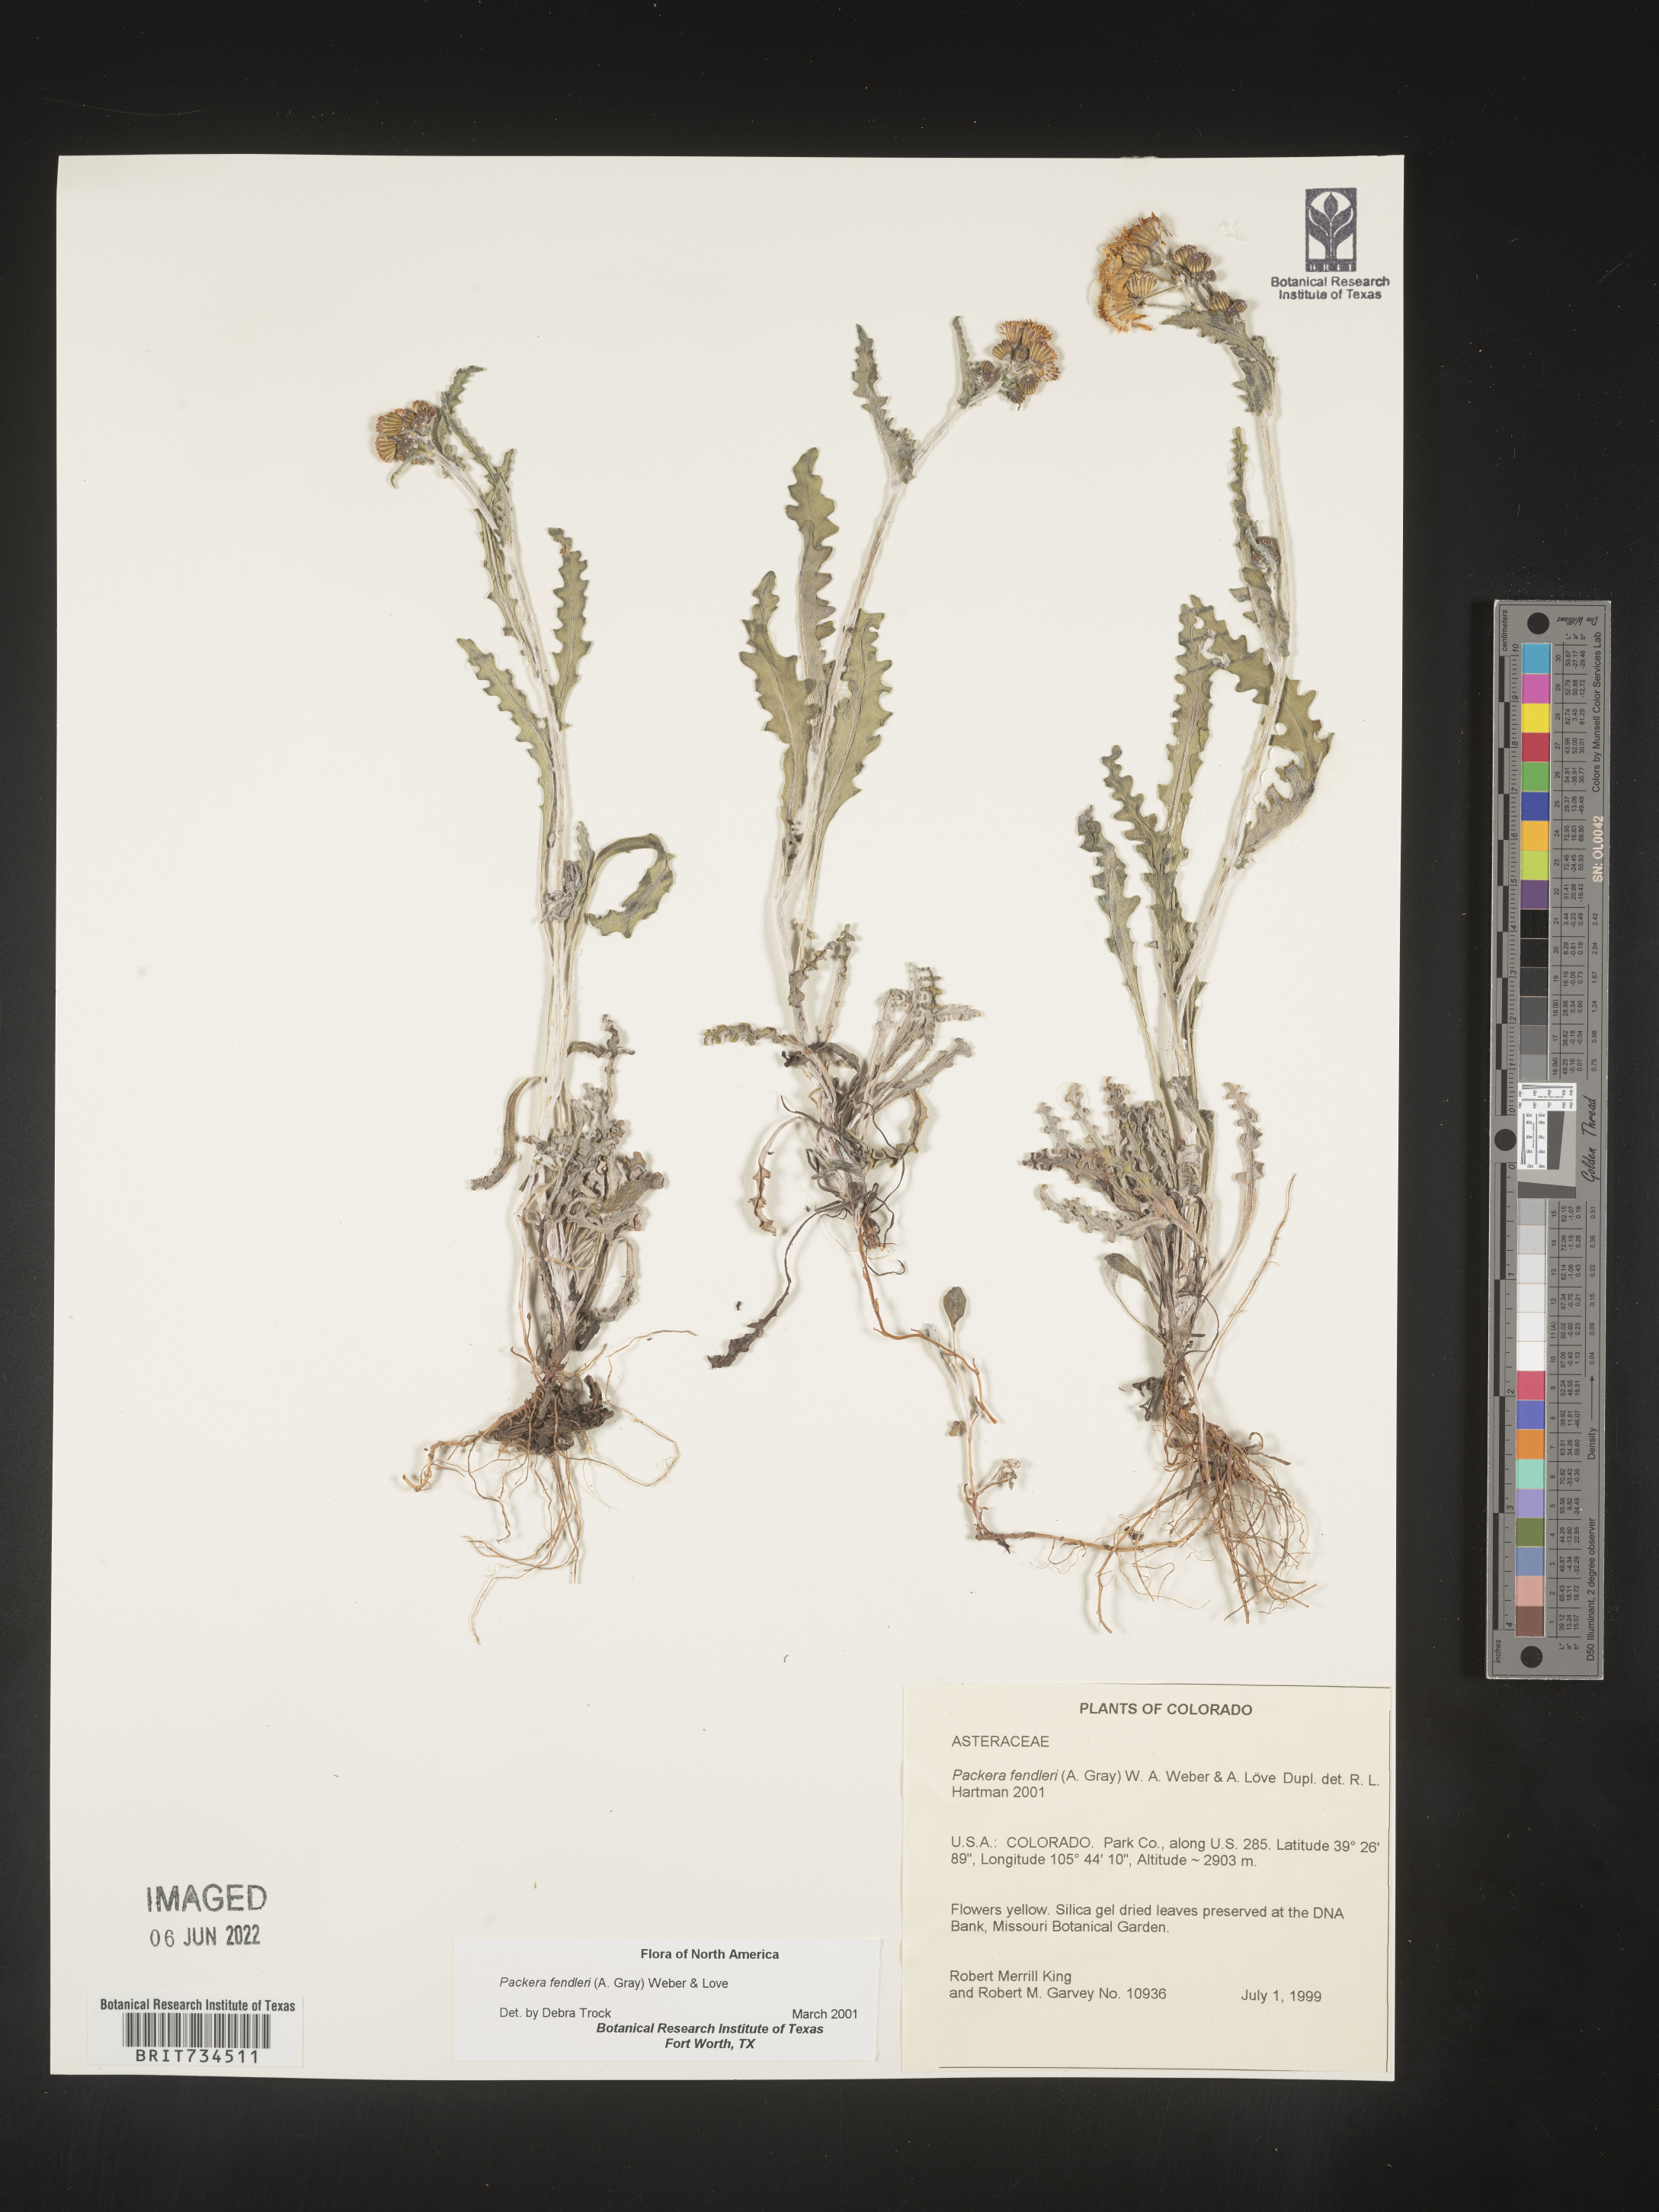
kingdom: Plantae
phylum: Tracheophyta
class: Magnoliopsida
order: Asterales
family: Asteraceae
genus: Packera
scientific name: Packera fendleri
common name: Notch-leaf butterweed
